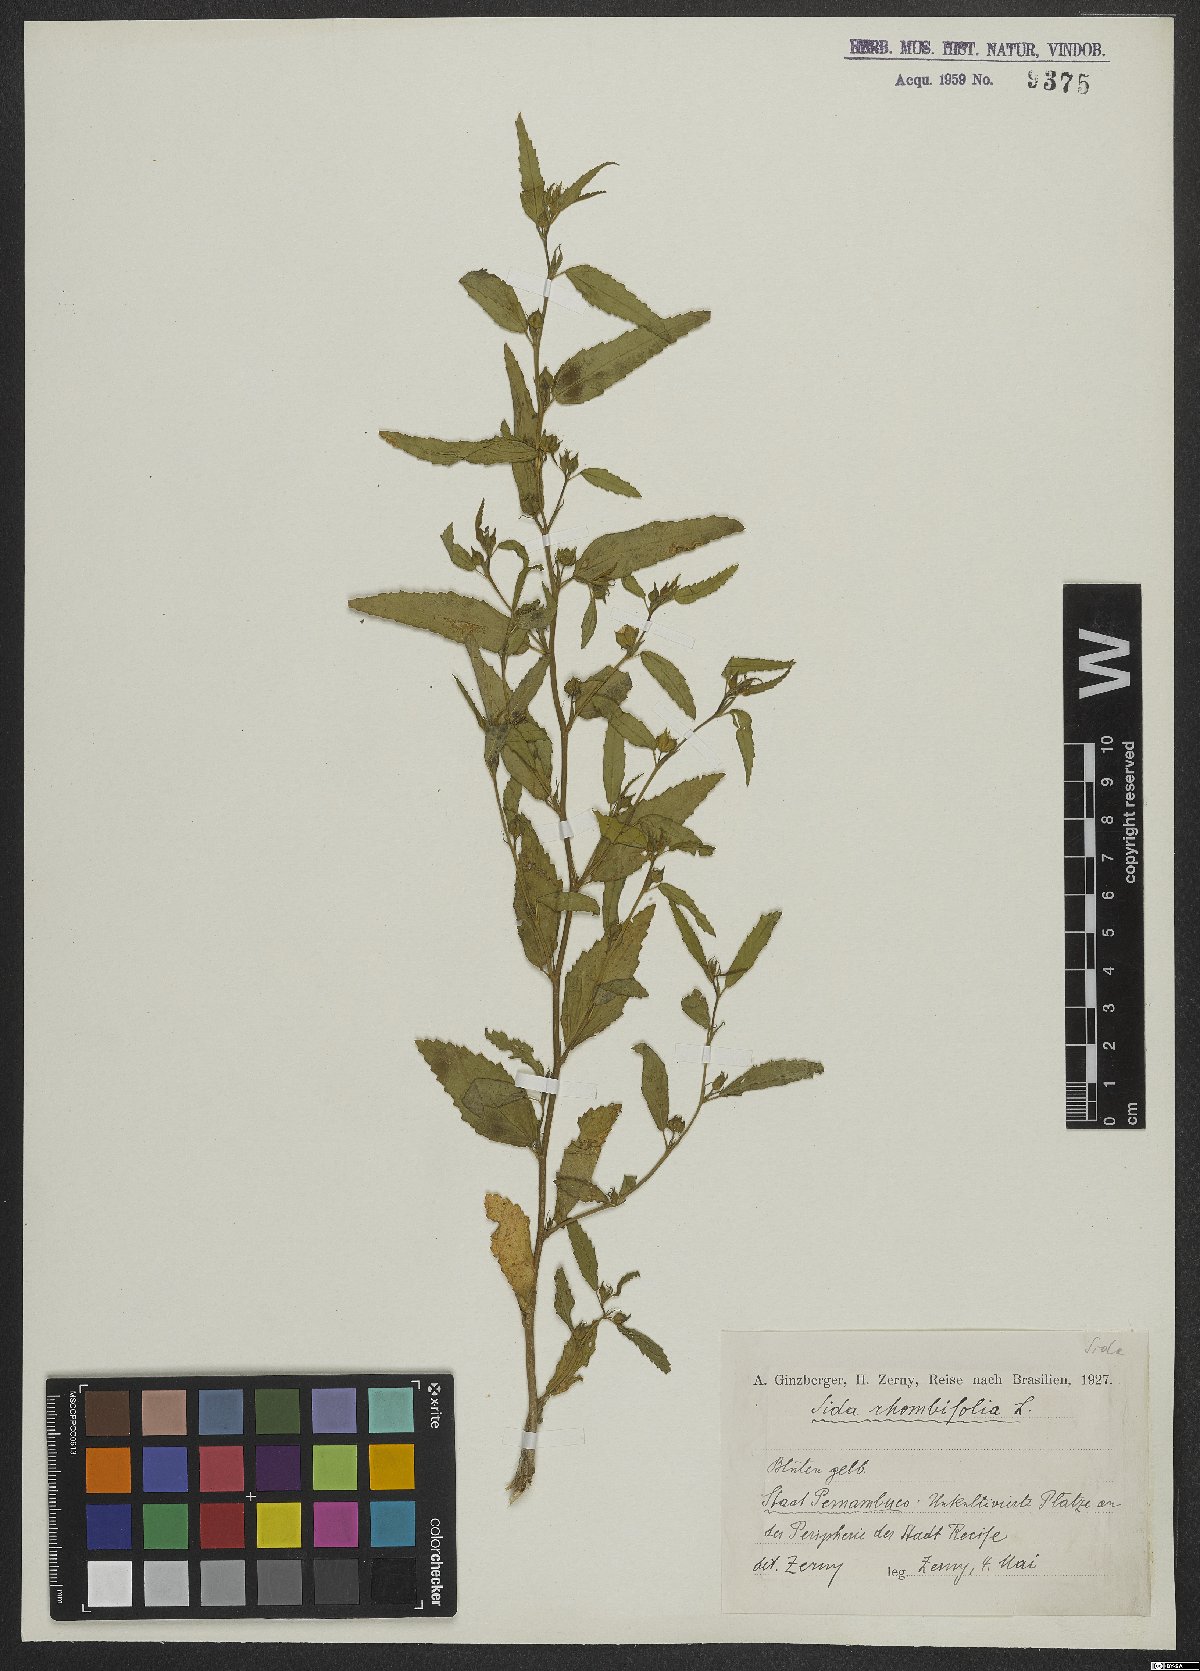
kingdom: Plantae
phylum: Tracheophyta
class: Magnoliopsida
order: Malvales
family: Malvaceae
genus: Sida
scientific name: Sida rhombifolia
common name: Queensland-hemp
